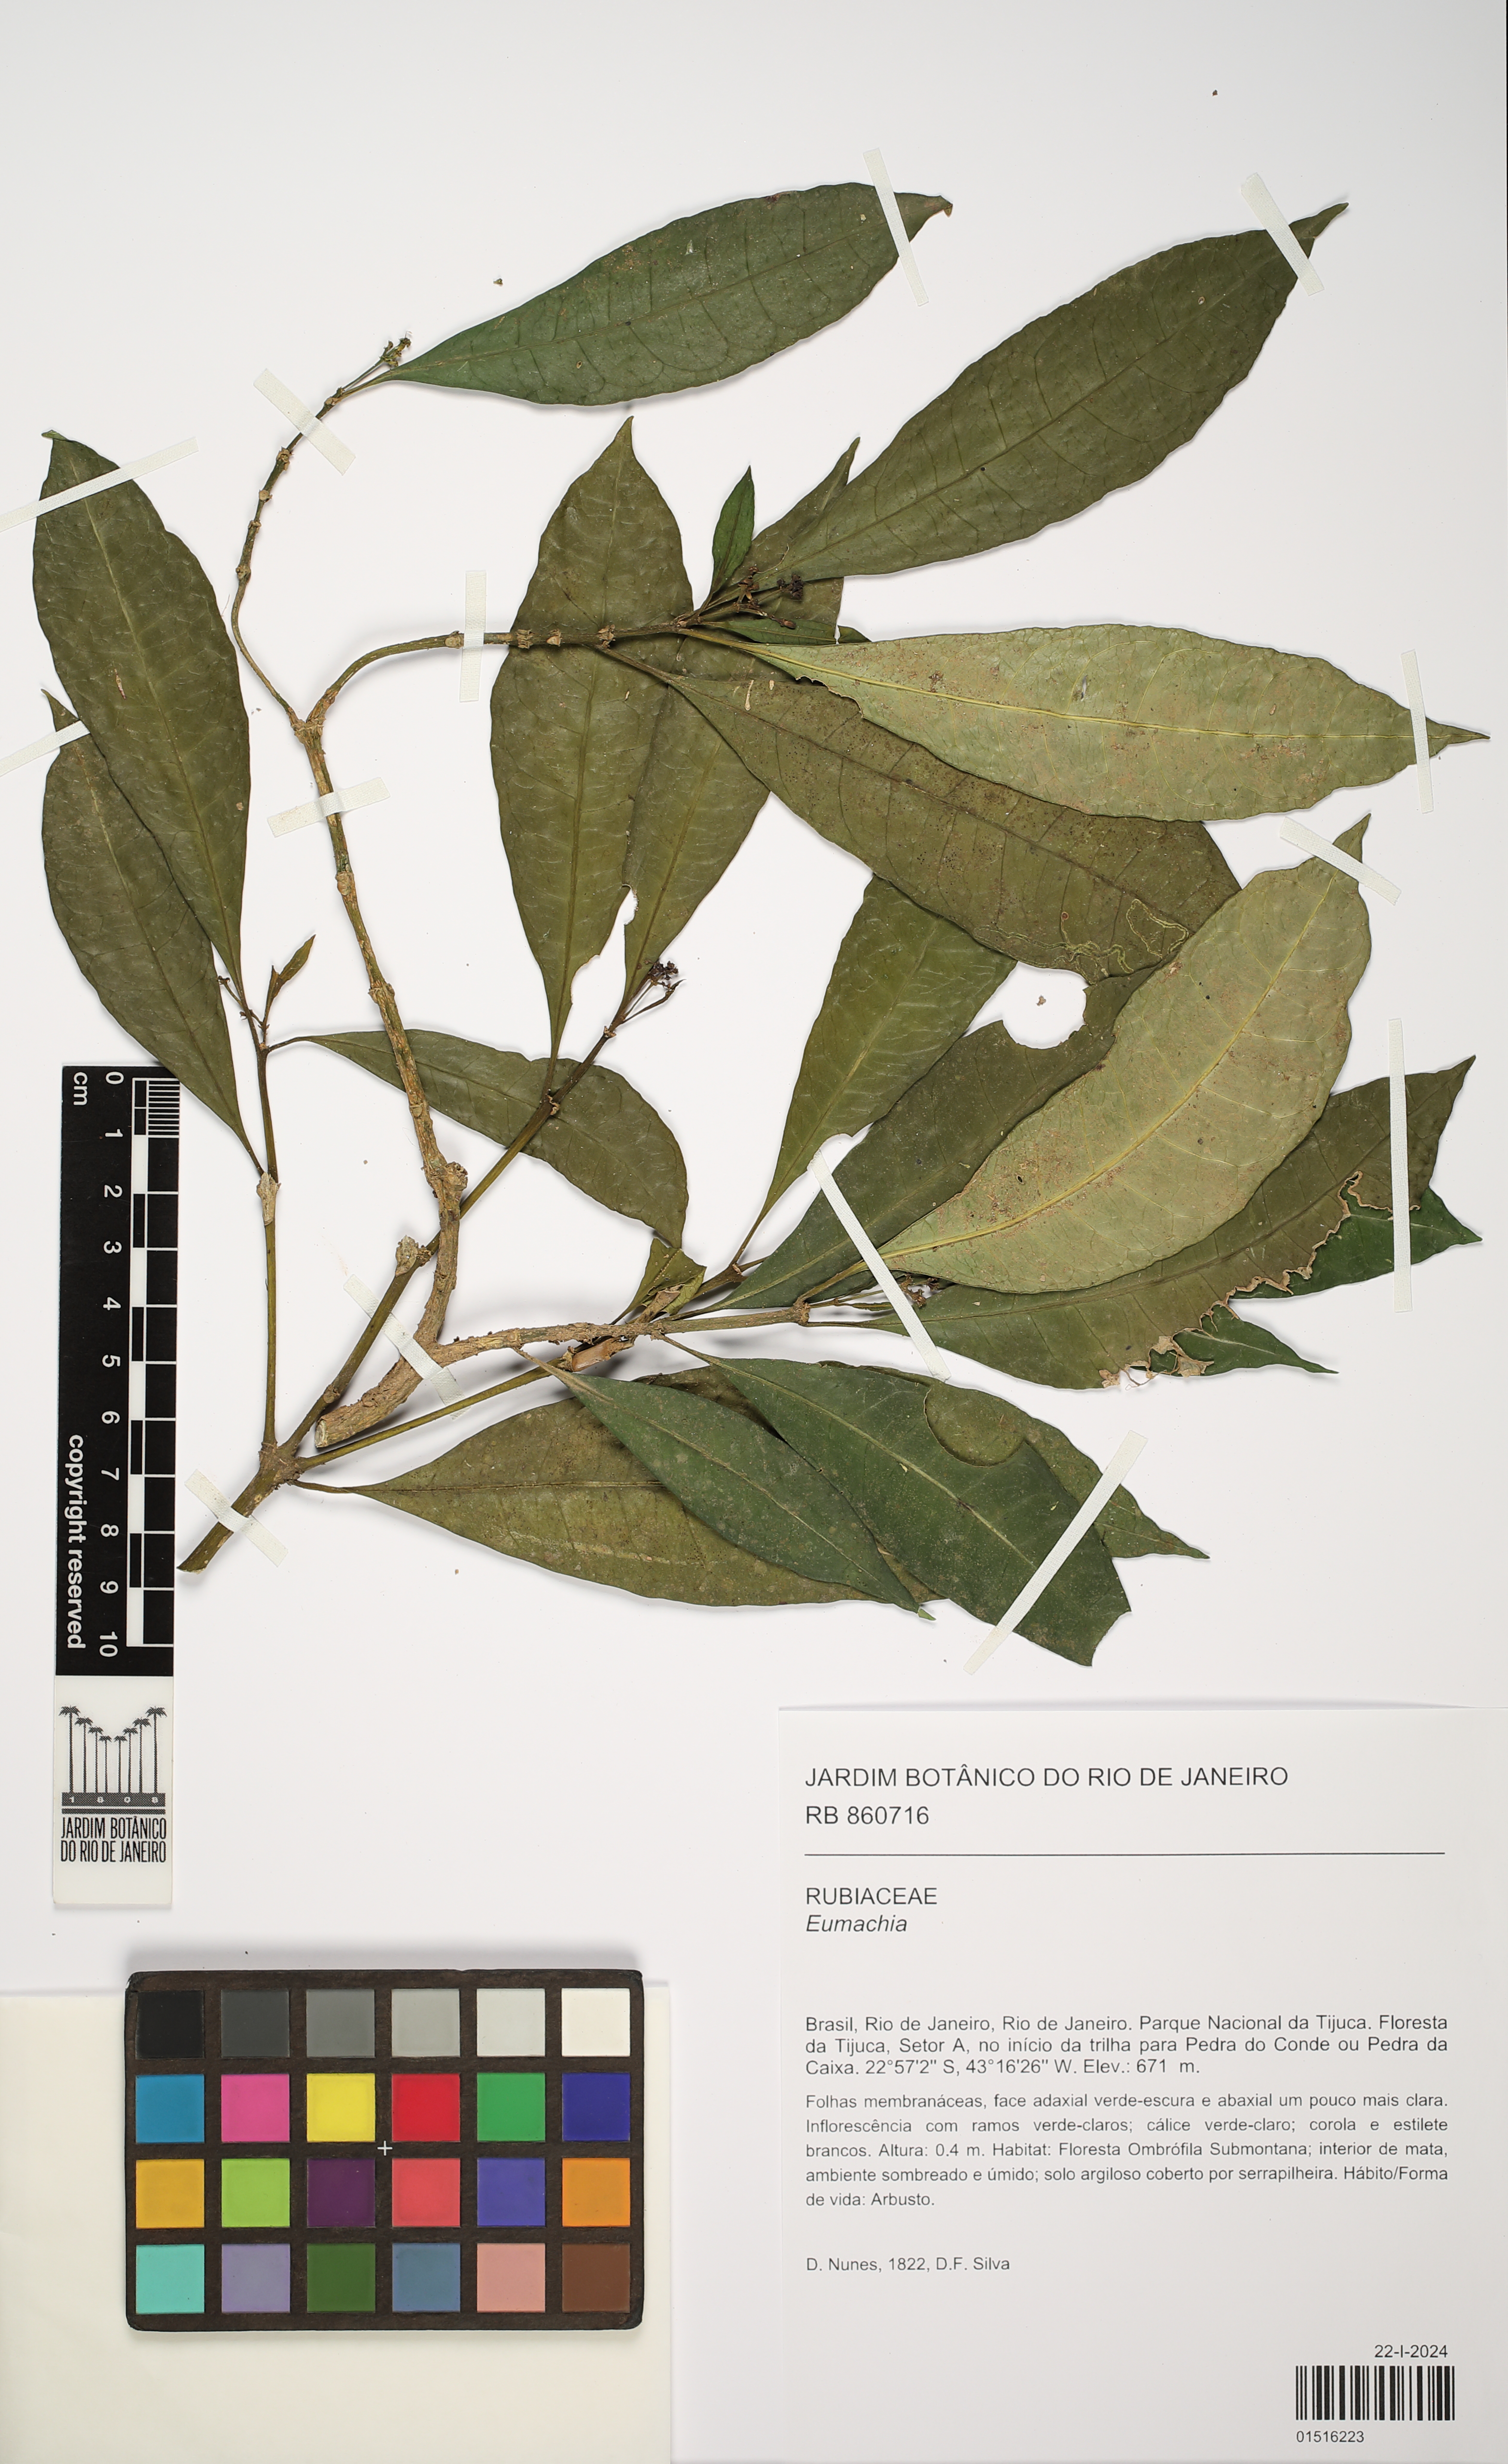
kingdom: Plantae
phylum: Tracheophyta
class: Magnoliopsida
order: Gentianales
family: Rubiaceae
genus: Eumachia
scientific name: Eumachia
